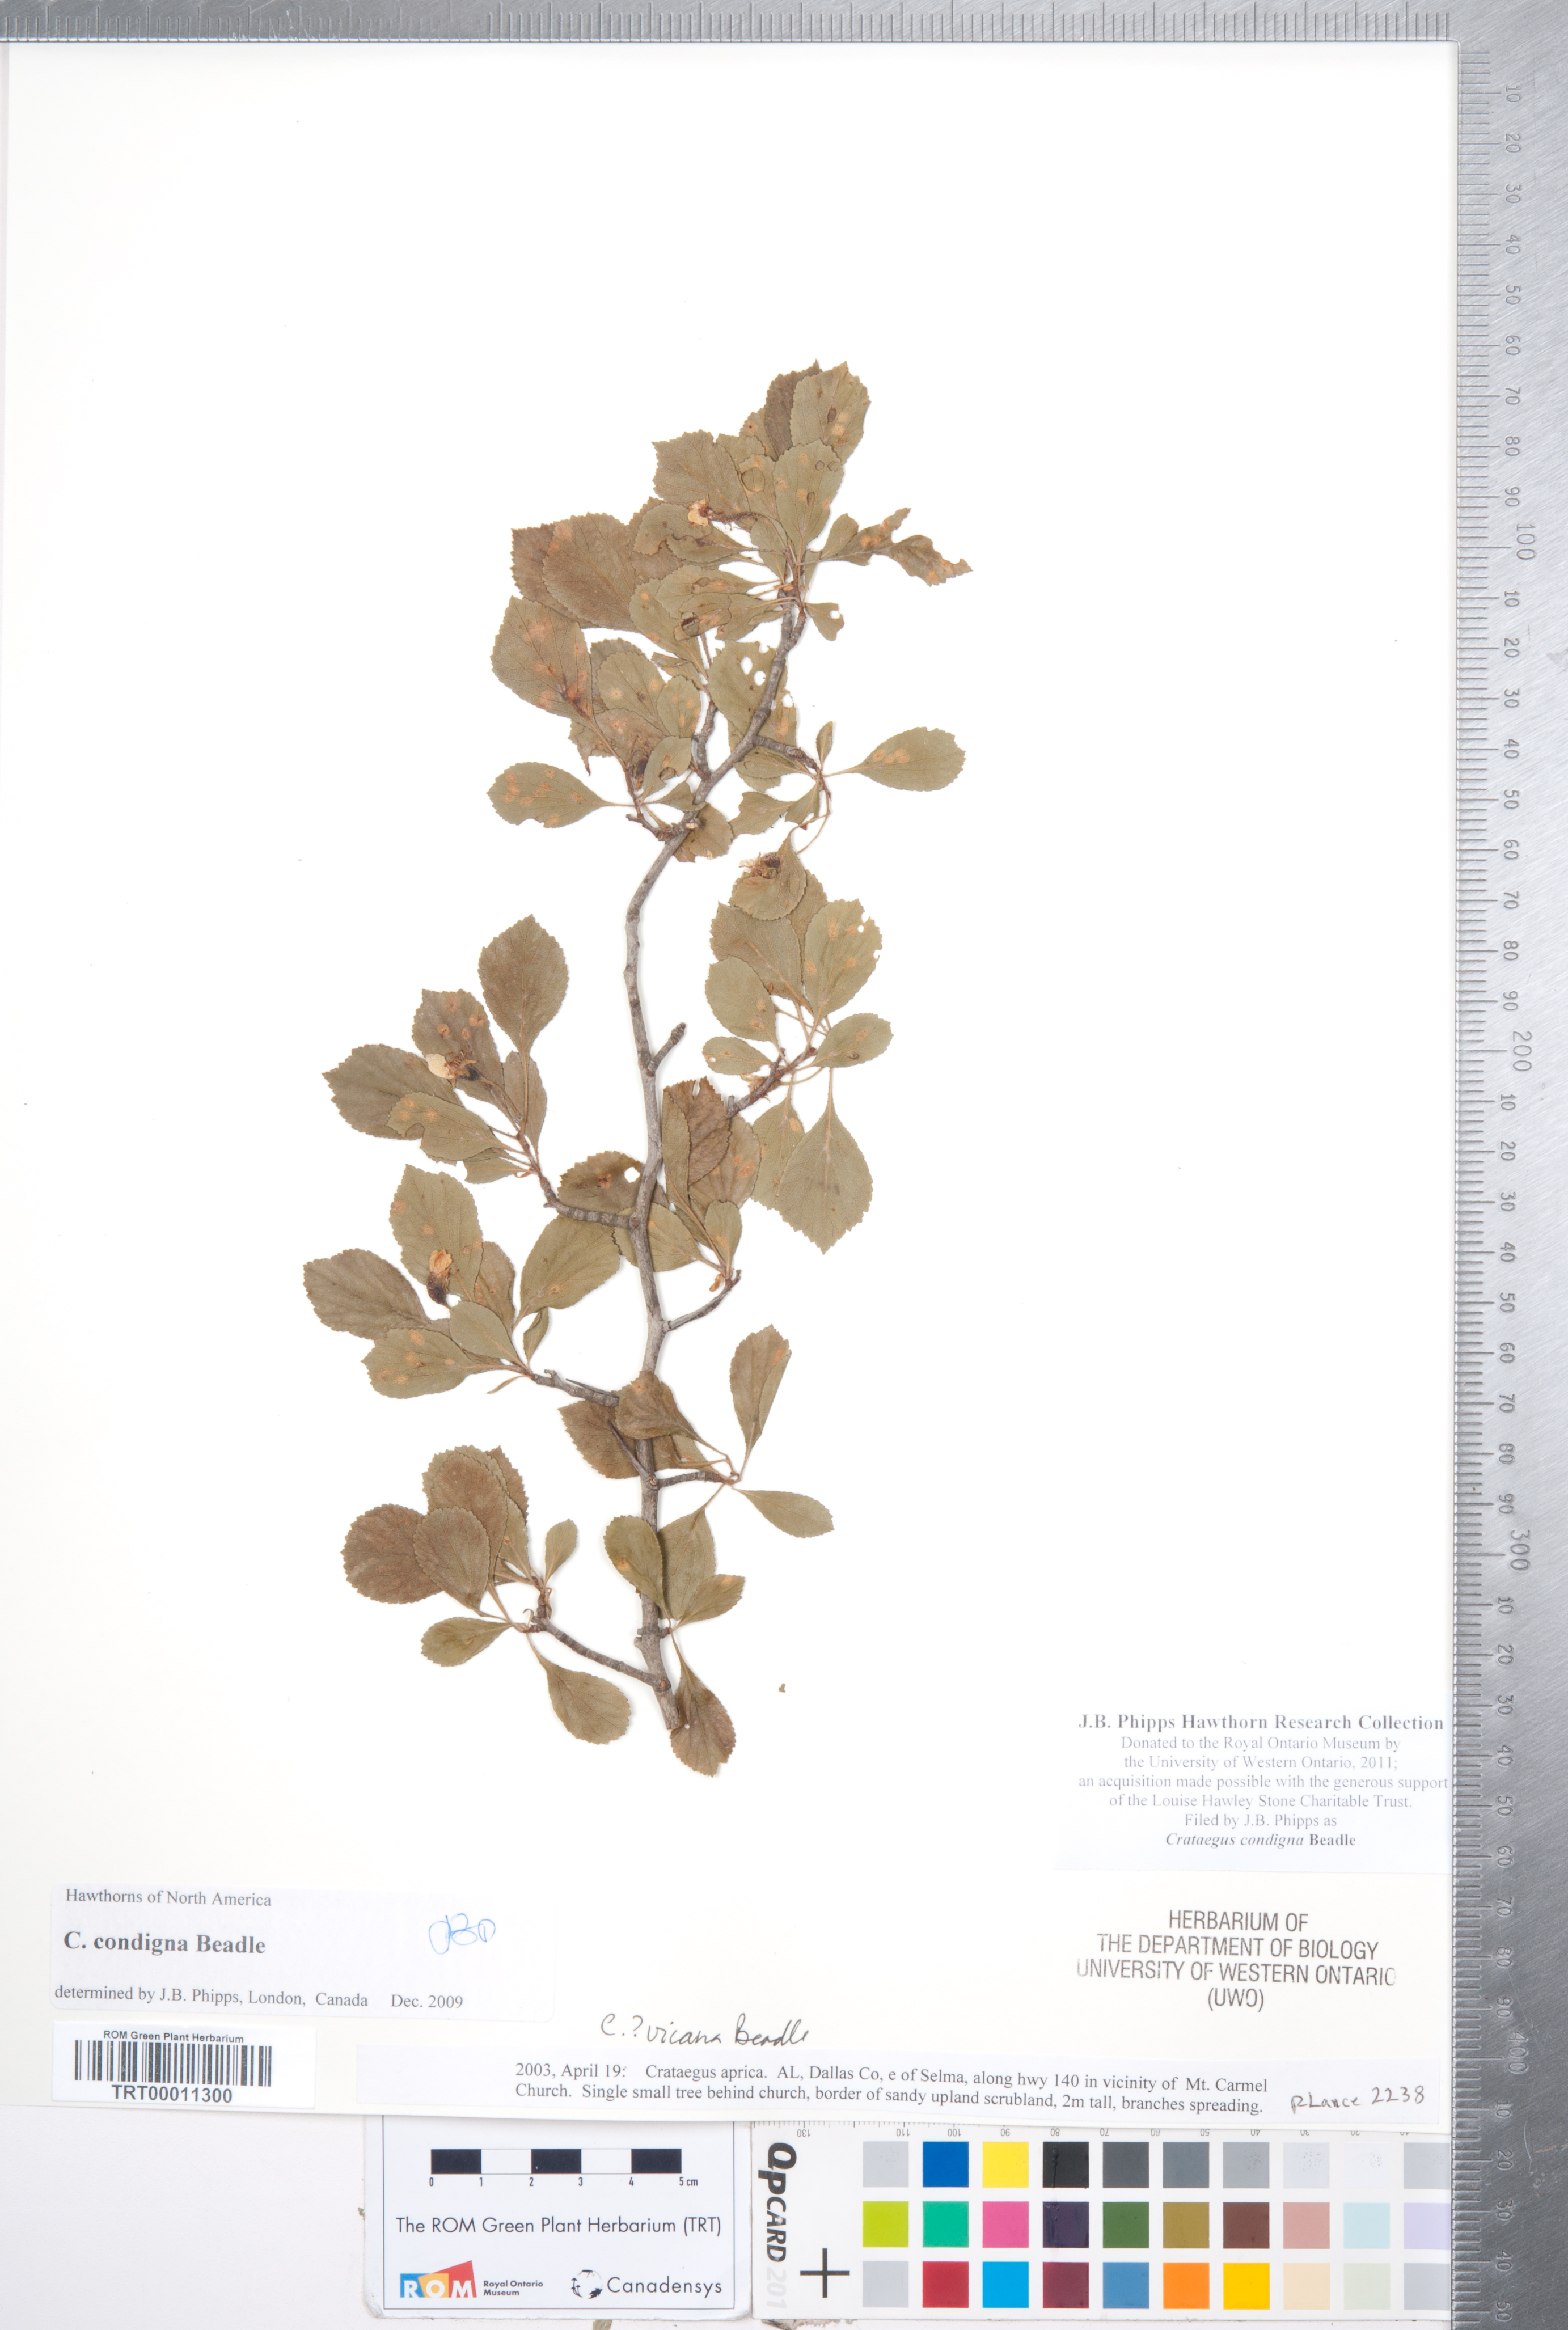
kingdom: Plantae
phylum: Tracheophyta
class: Magnoliopsida
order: Rosales
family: Rosaceae
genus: Crataegus
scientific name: Crataegus condigna
